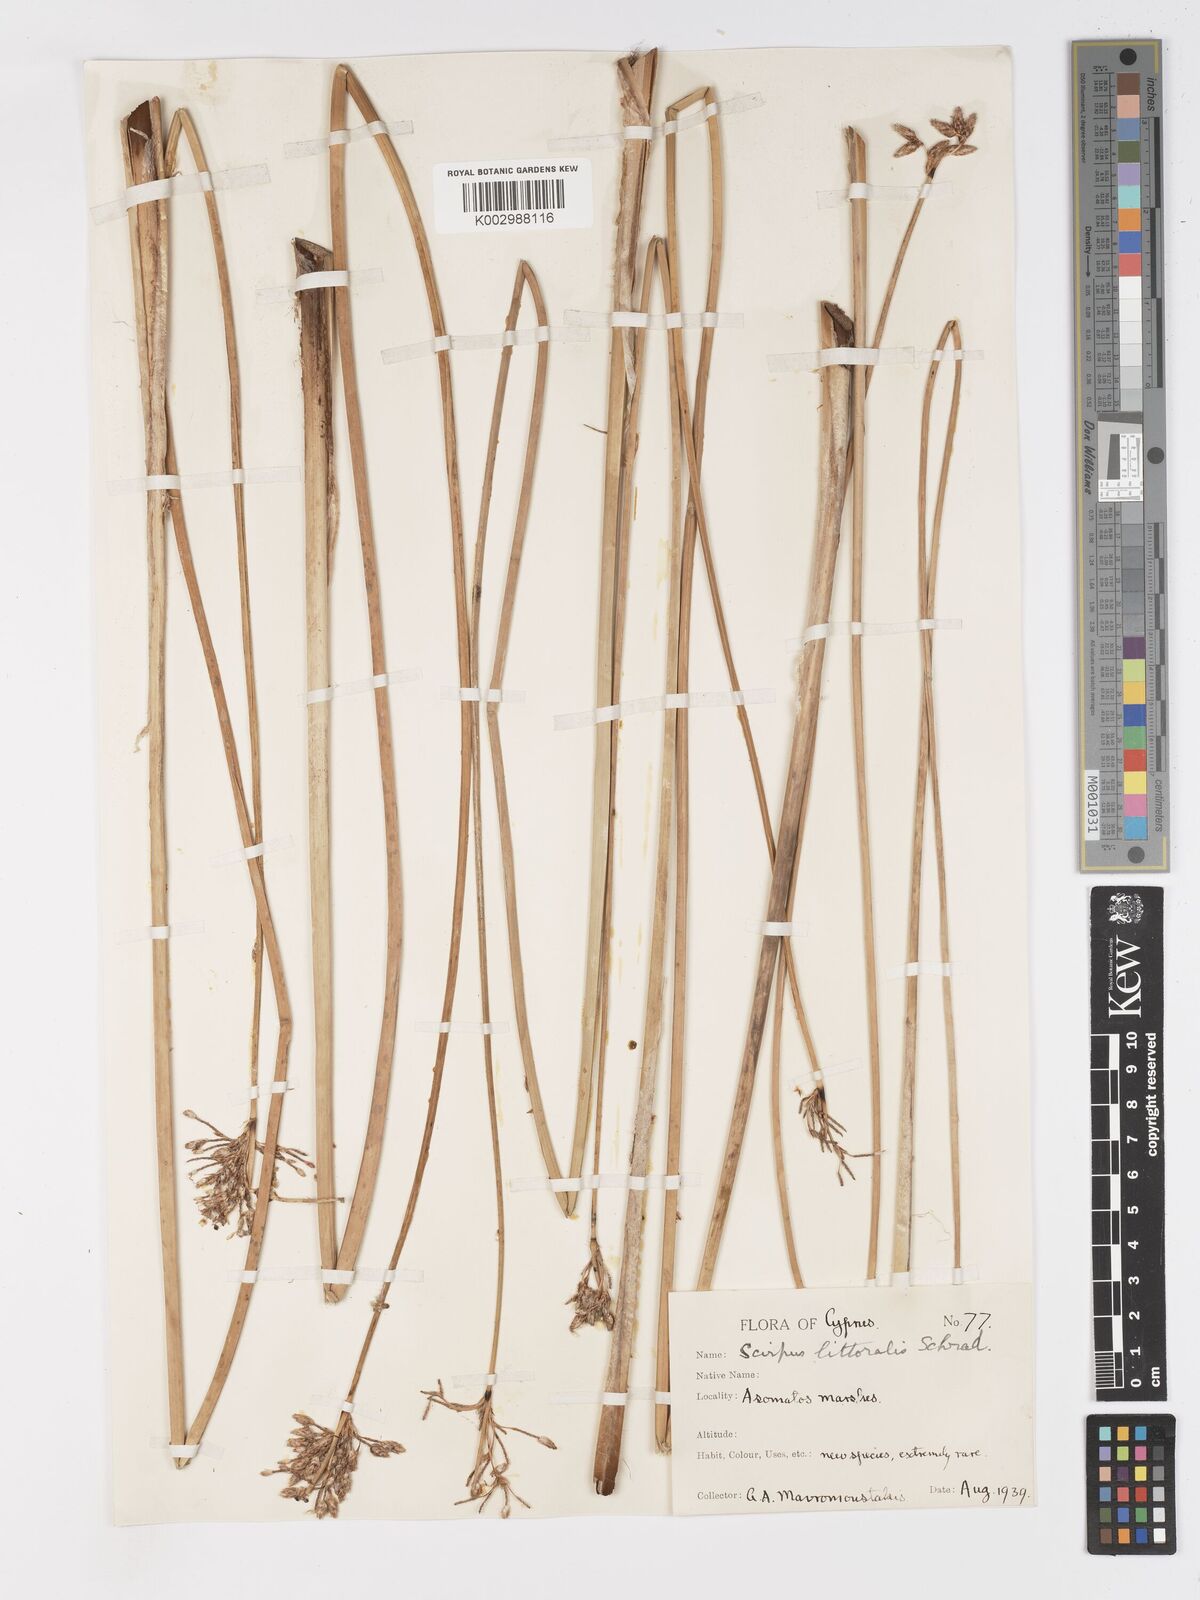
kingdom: Plantae
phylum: Tracheophyta
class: Liliopsida
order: Poales
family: Cyperaceae
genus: Schoenoplectus
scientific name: Schoenoplectus litoralis
